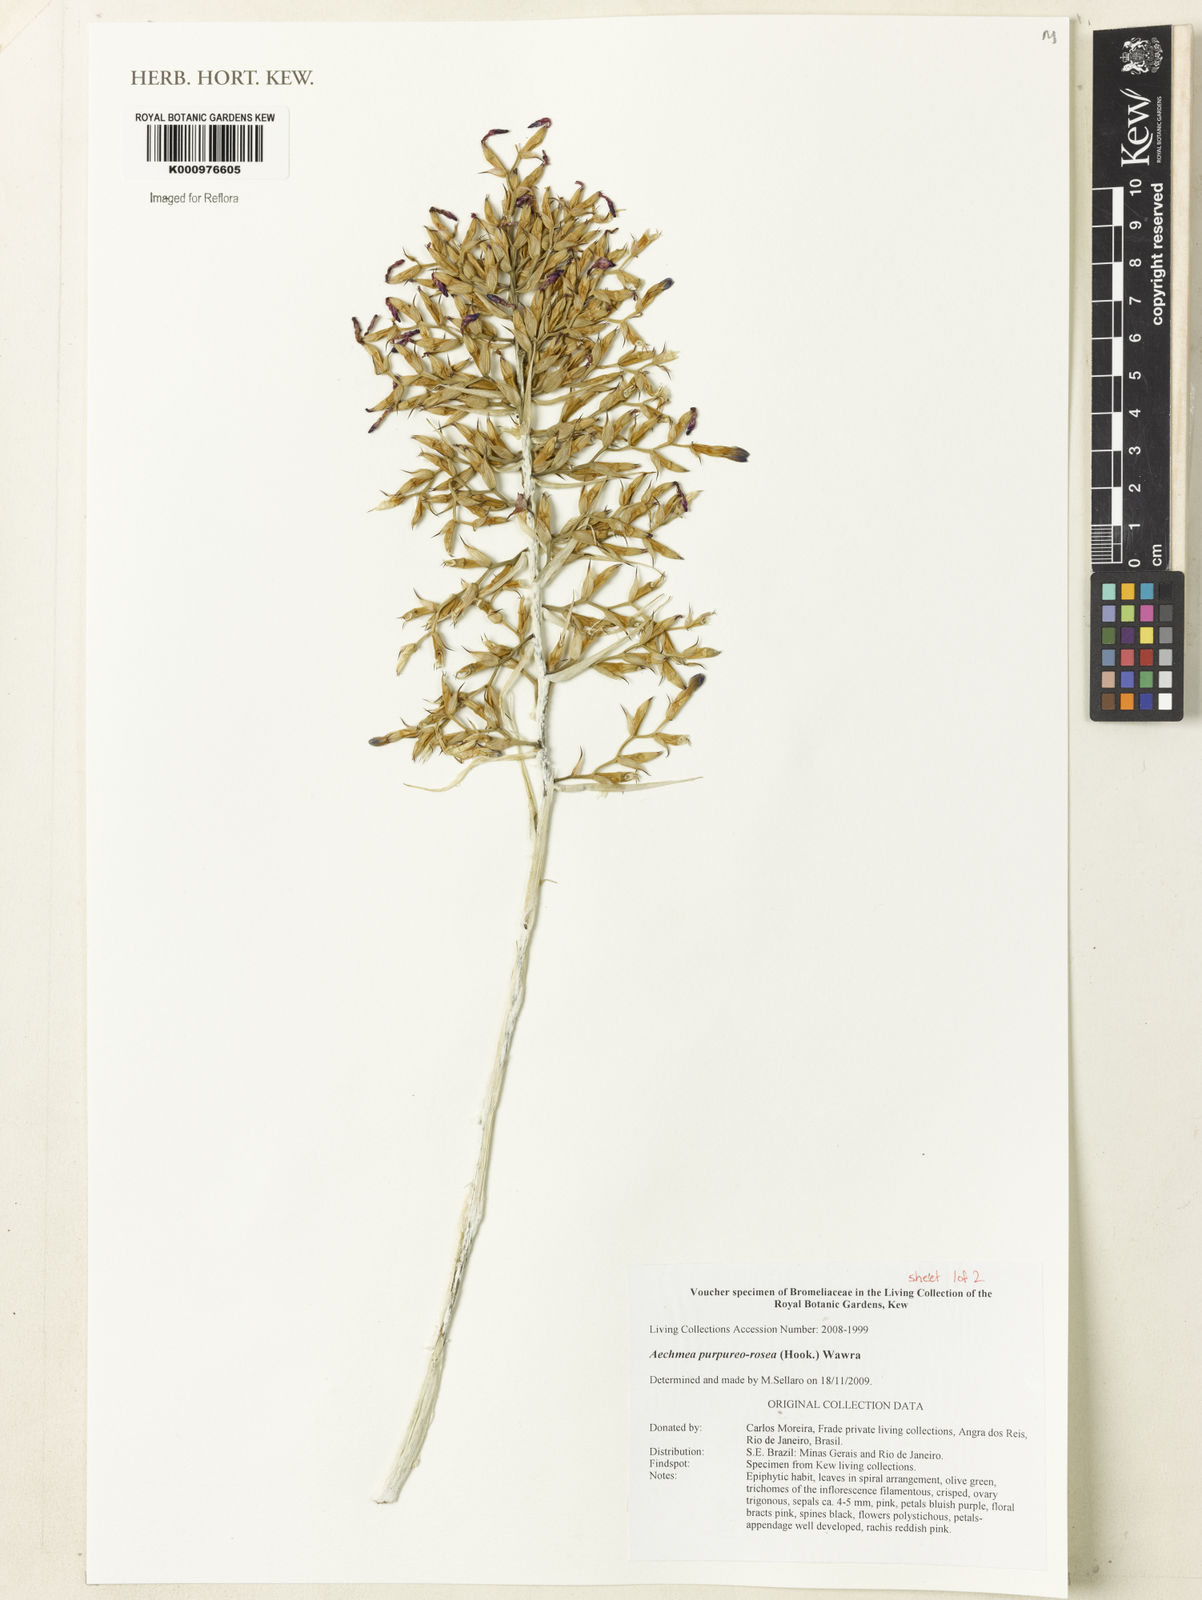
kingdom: Plantae
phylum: Tracheophyta
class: Liliopsida
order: Poales
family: Bromeliaceae
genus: Aechmea
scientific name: Aechmea purpureorosea
